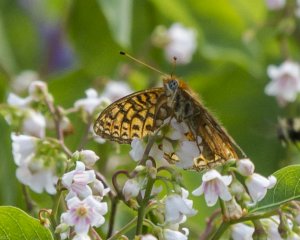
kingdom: Animalia
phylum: Arthropoda
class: Insecta
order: Lepidoptera
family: Nymphalidae
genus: Speyeria
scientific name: Speyeria atlantis
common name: Atlantis Fritillary
